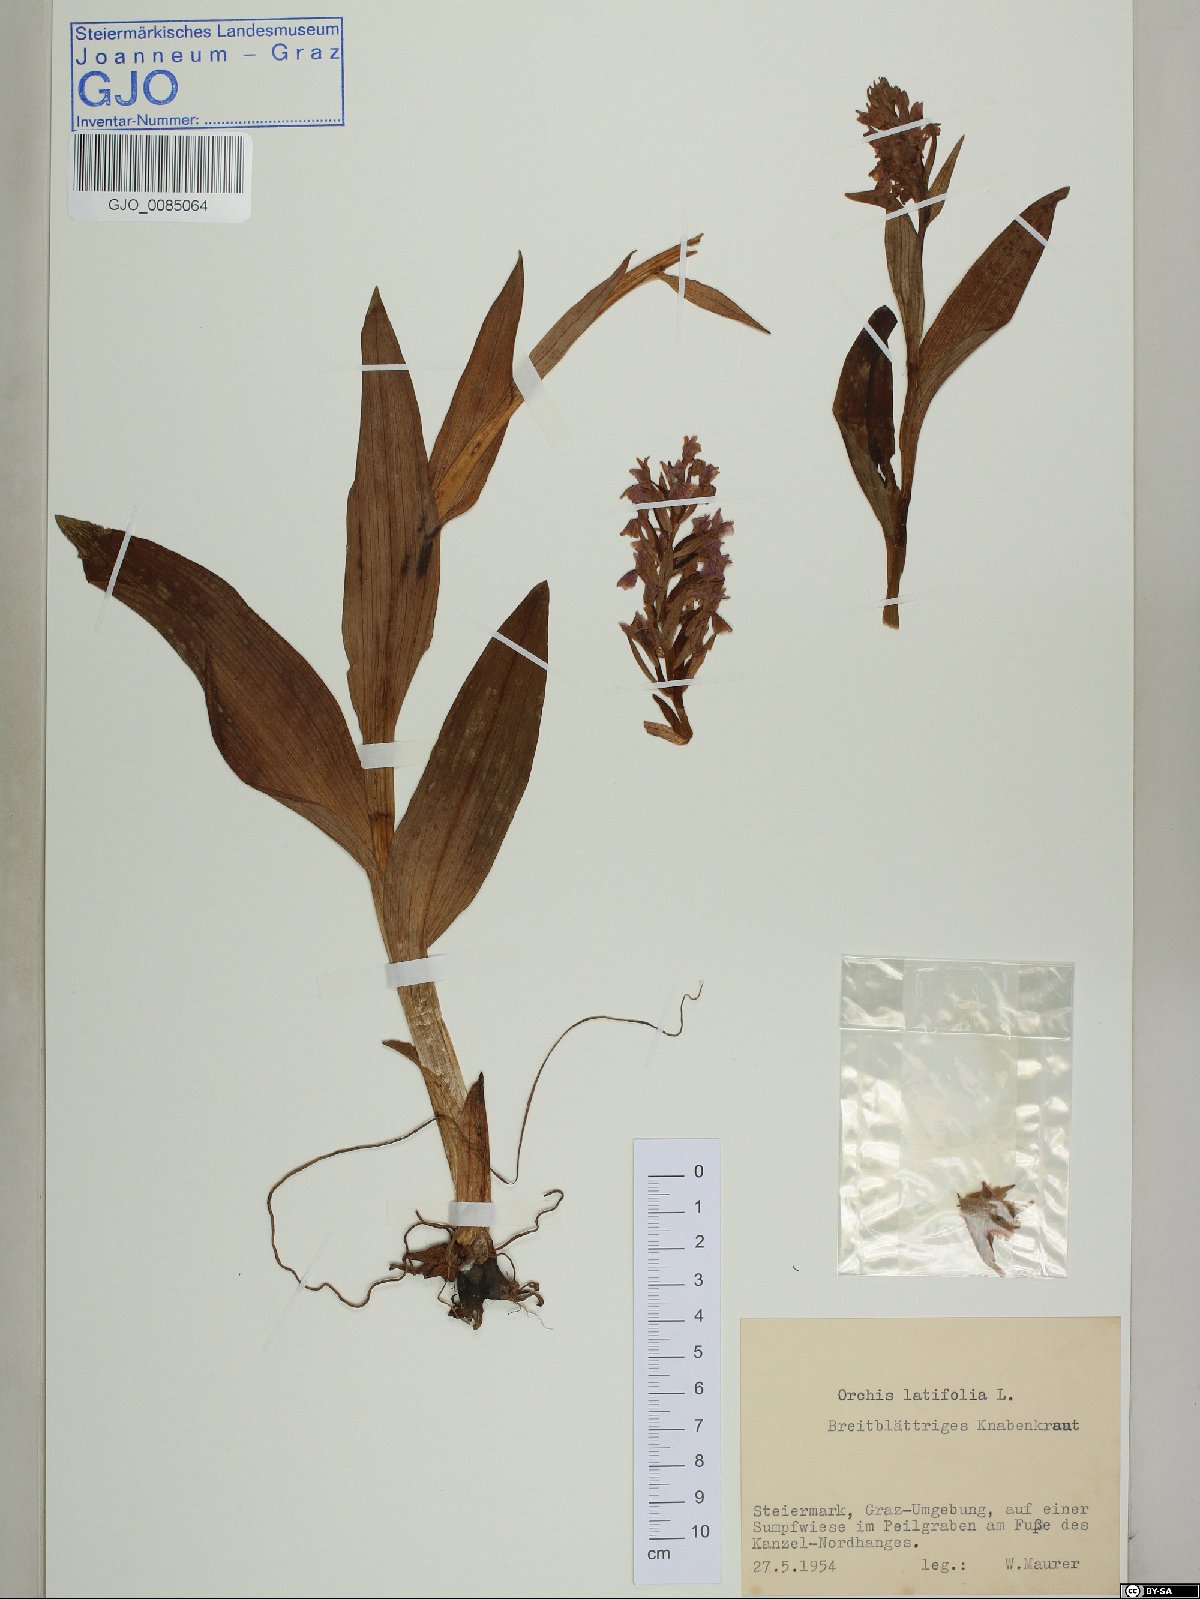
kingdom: Plantae
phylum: Tracheophyta
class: Liliopsida
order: Asparagales
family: Orchidaceae
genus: Dactylorhiza
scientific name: Dactylorhiza incarnata
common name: Early marsh-orchid
